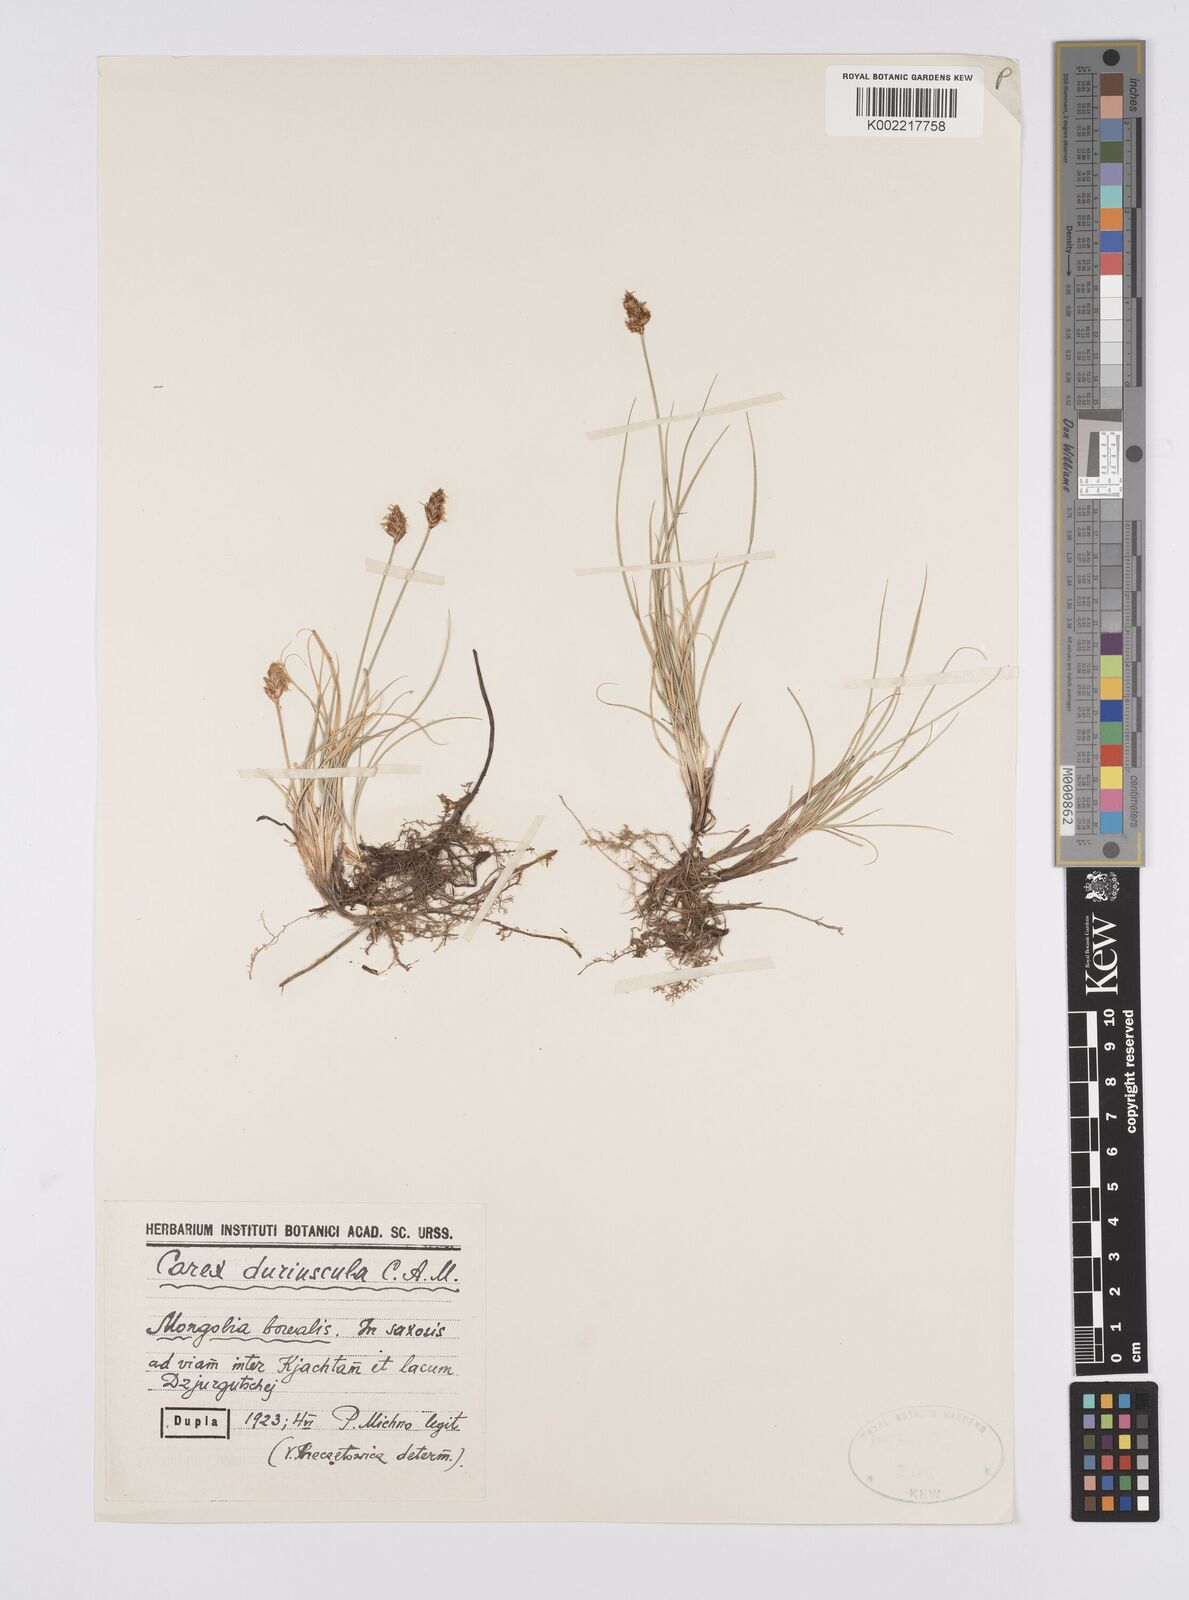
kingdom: Plantae
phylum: Tracheophyta
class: Liliopsida
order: Poales
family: Cyperaceae
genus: Carex
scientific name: Carex stenophylla
